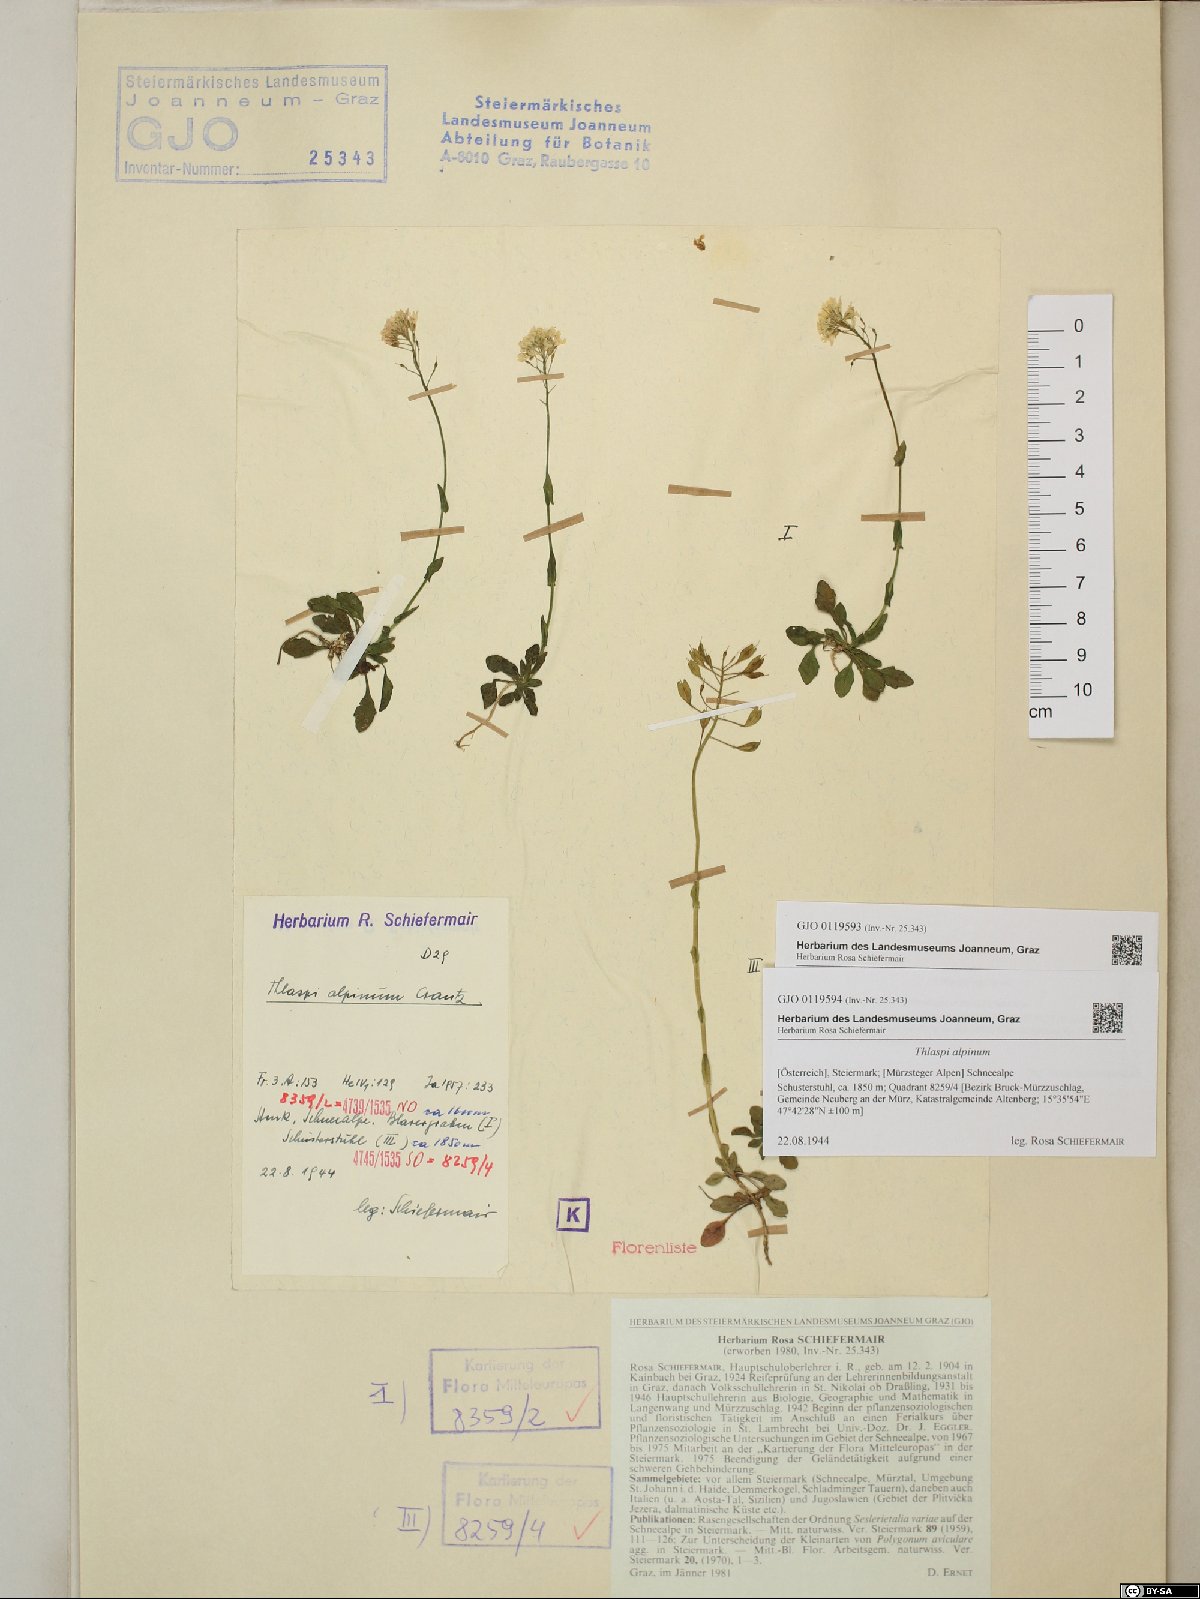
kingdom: Plantae
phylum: Tracheophyta
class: Magnoliopsida
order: Brassicales
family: Brassicaceae
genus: Noccaea
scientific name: Noccaea alpestris
